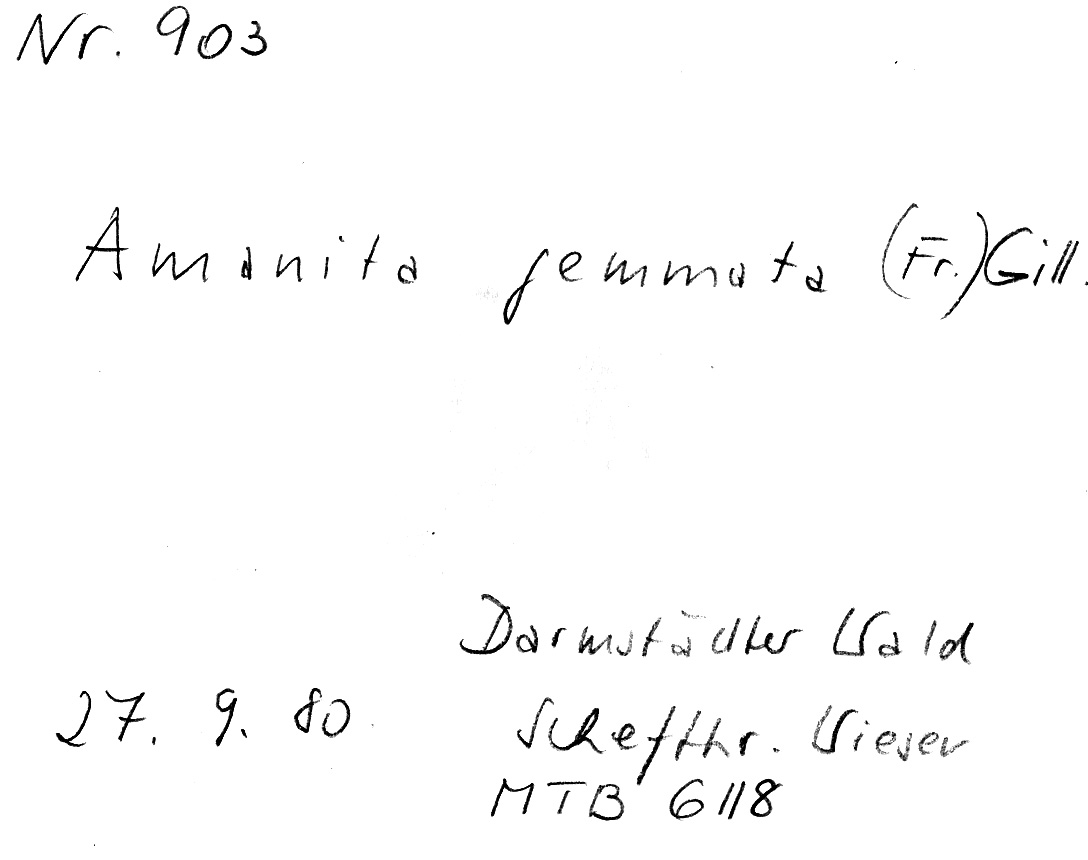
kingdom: Fungi
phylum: Basidiomycota
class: Agaricomycetes
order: Agaricales
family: Amanitaceae
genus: Amanita
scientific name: Amanita gemmata
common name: Jewelled amanita
